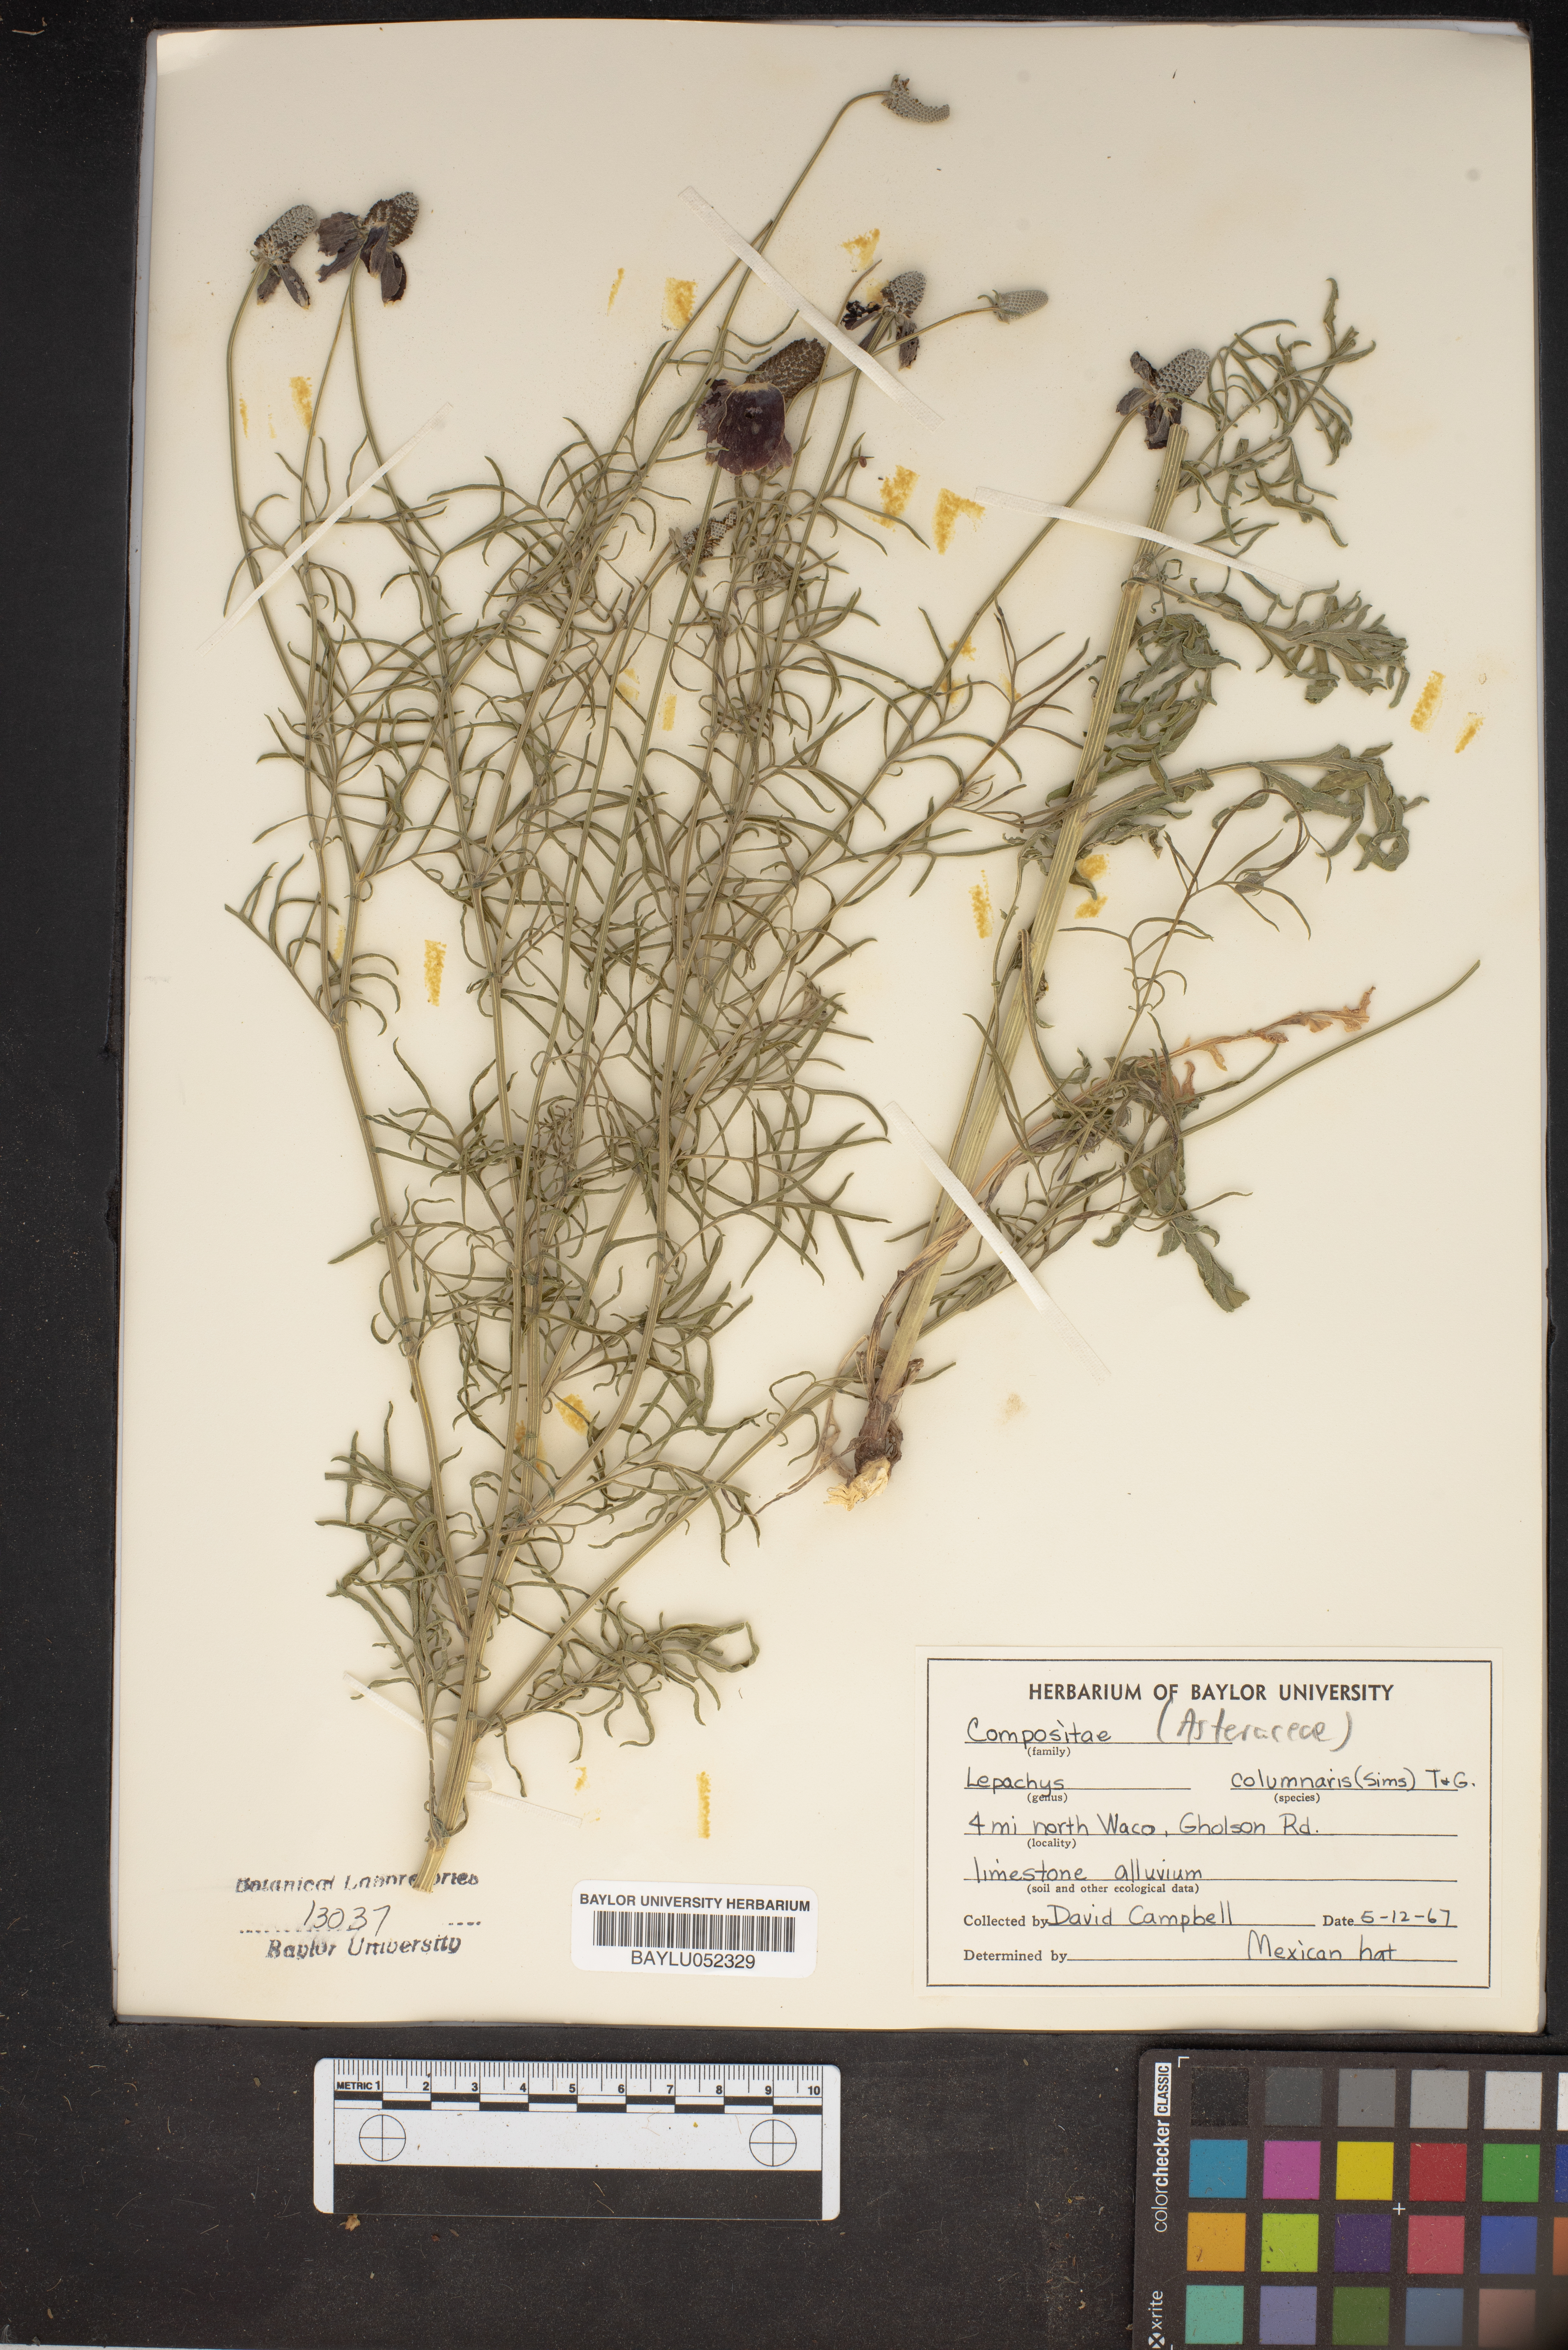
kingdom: Plantae
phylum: Tracheophyta
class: Magnoliopsida
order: Asterales
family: Asteraceae
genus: Ratibida
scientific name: Ratibida columnifera
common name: Prairie coneflower
